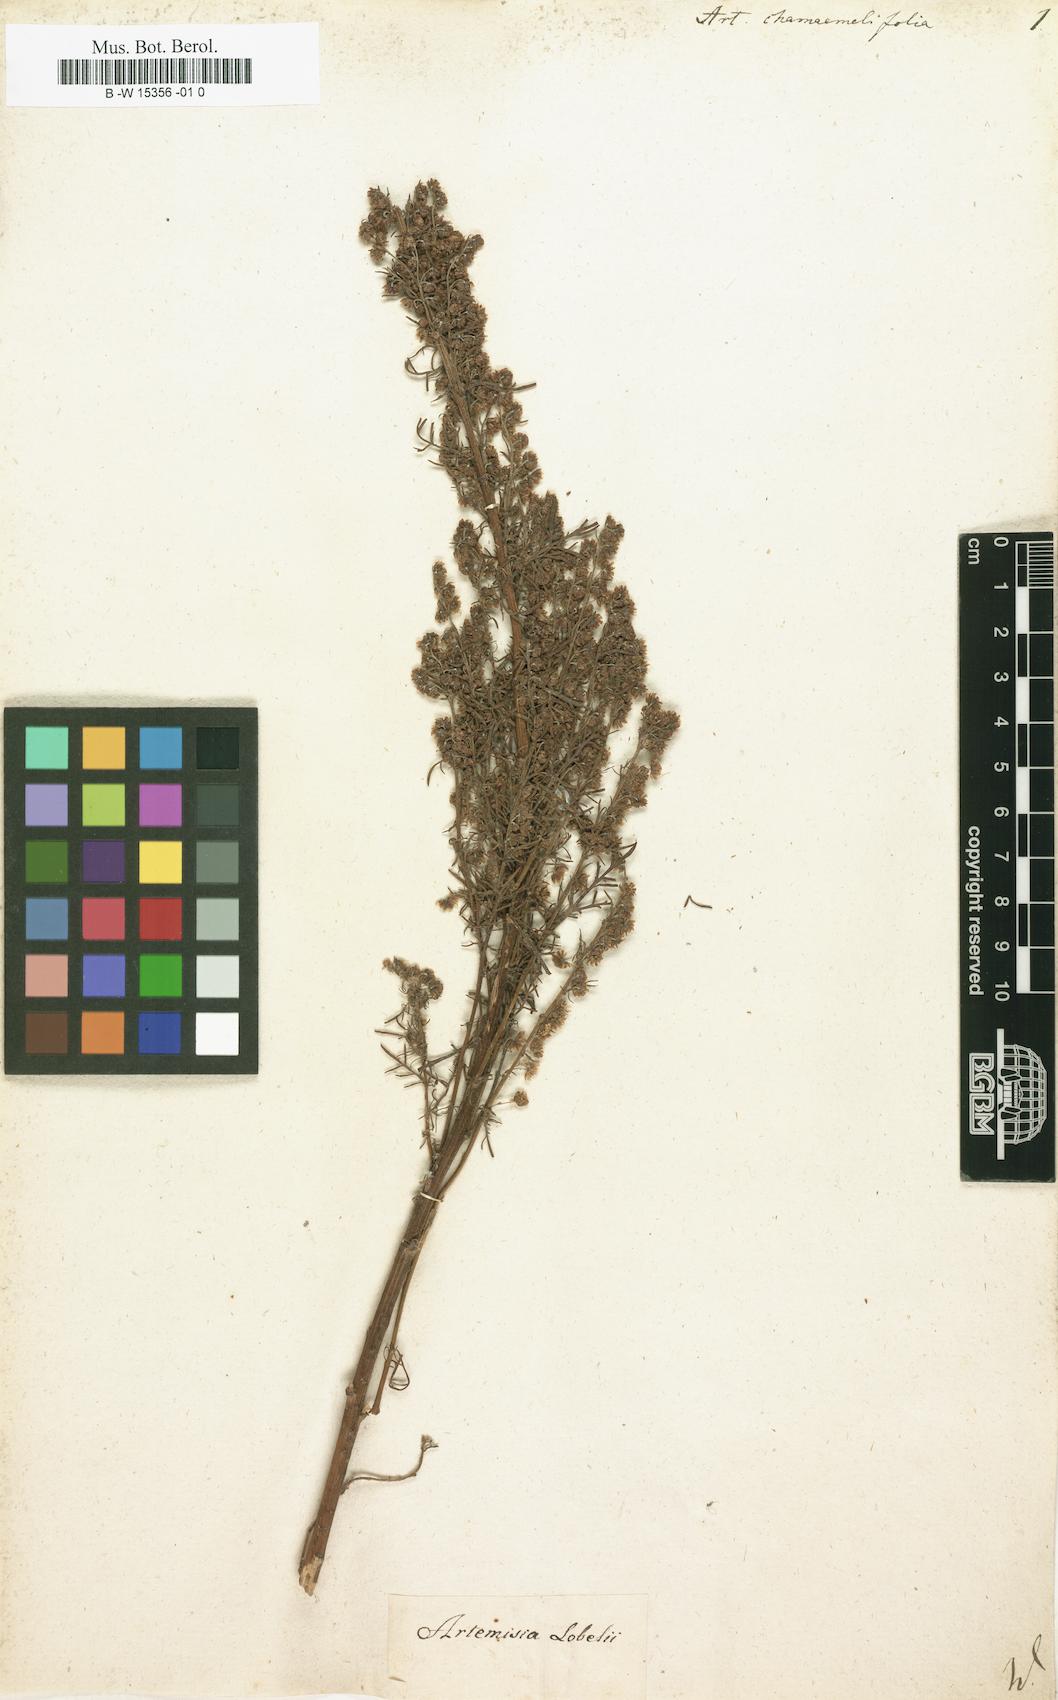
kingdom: Plantae
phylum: Tracheophyta
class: Magnoliopsida
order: Asterales
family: Asteraceae
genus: Artemisia
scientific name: Artemisia chamaemelifolia
